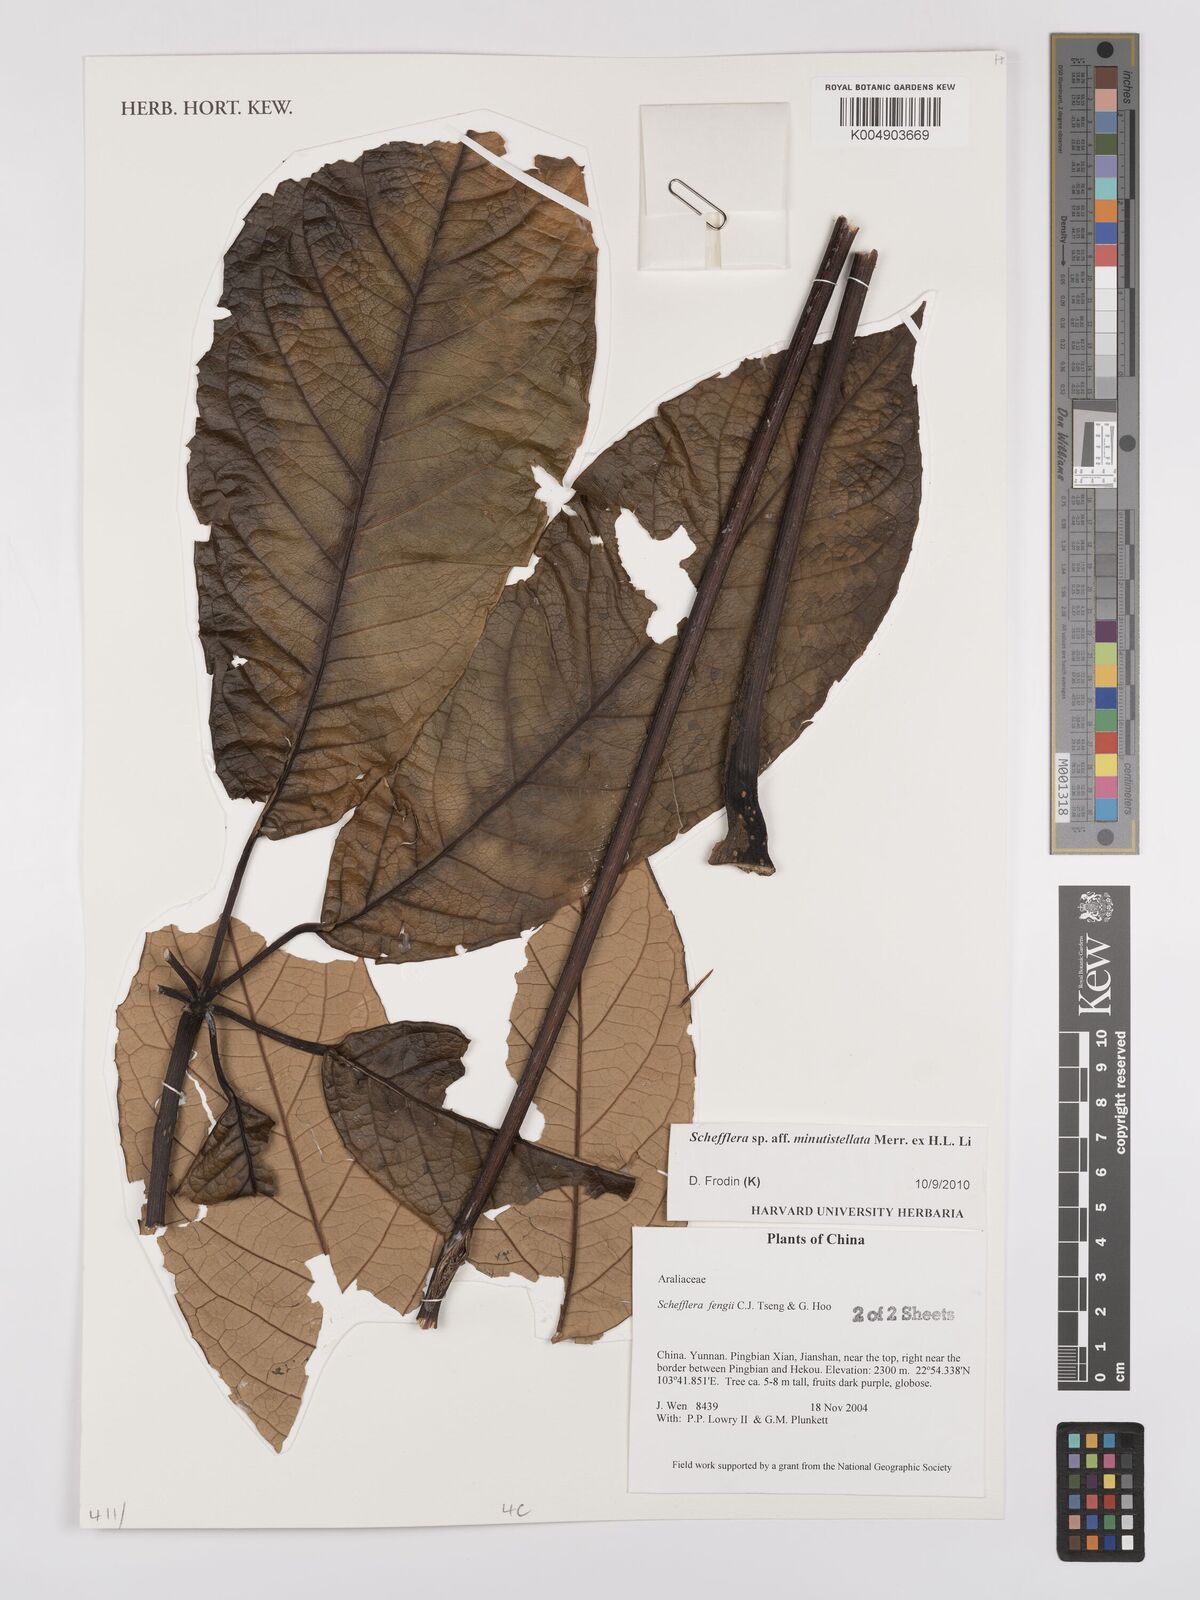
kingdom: Plantae
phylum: Tracheophyta
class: Magnoliopsida
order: Apiales
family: Araliaceae
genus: Heptapleurum
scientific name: Heptapleurum minutistellatum
